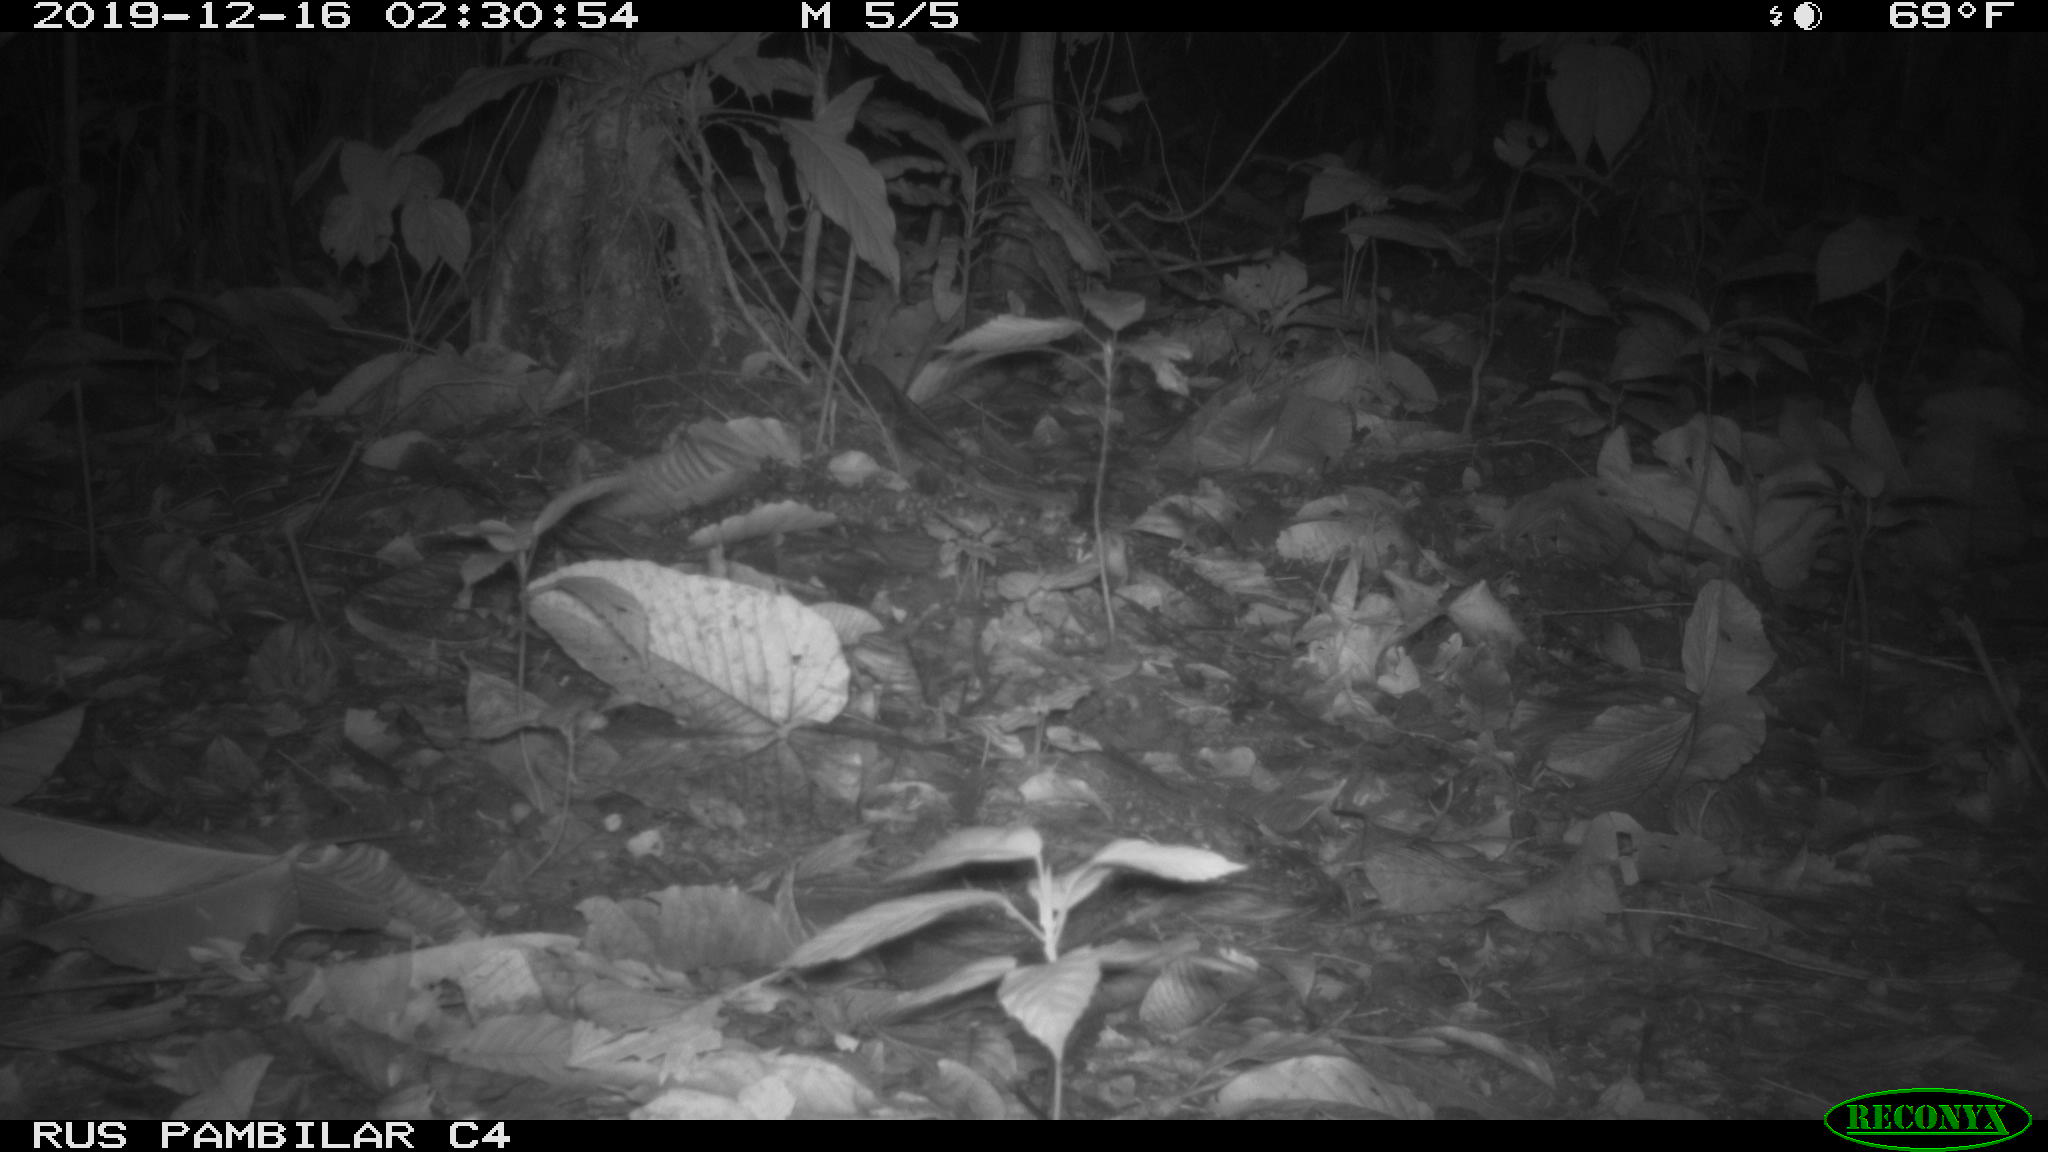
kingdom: Animalia
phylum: Chordata
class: Mammalia
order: Rodentia
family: Echimyidae
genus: Proechimys
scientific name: Proechimys
